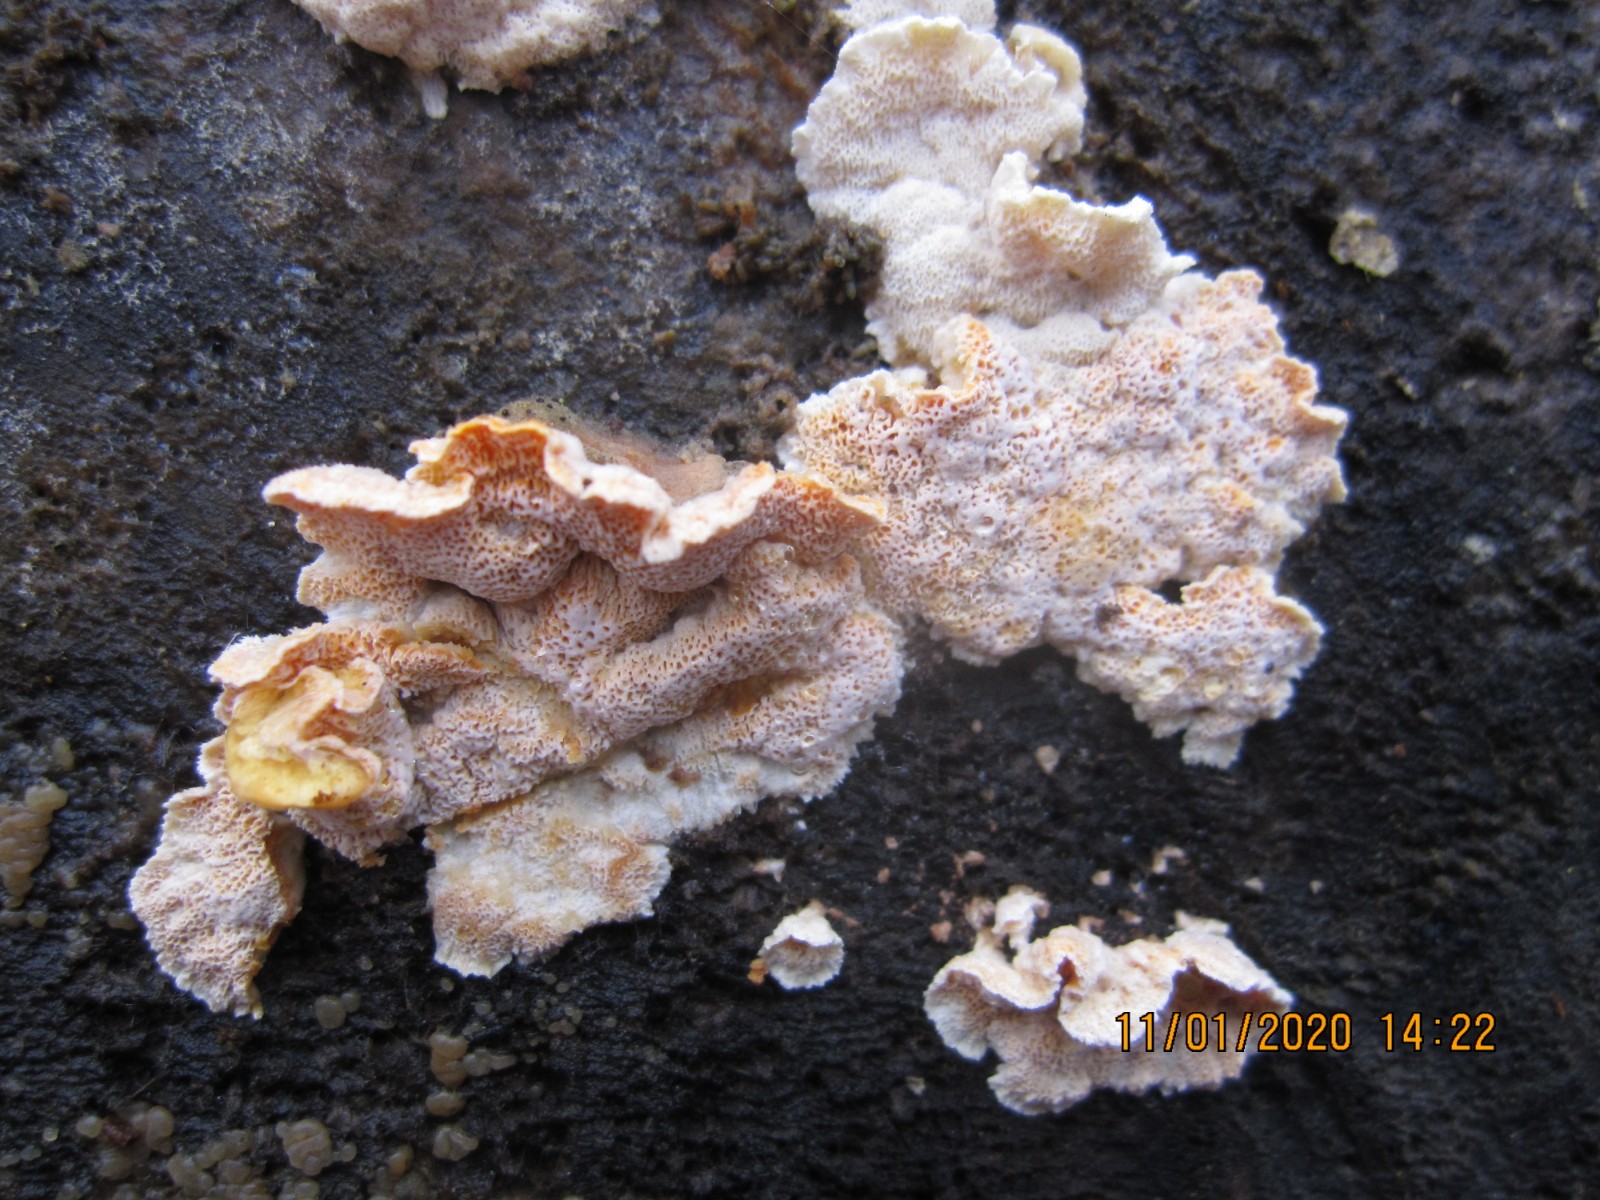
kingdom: Fungi
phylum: Basidiomycota
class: Agaricomycetes
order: Polyporales
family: Incrustoporiaceae
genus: Skeletocutis
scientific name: Skeletocutis amorpha
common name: orange krystalporesvamp
